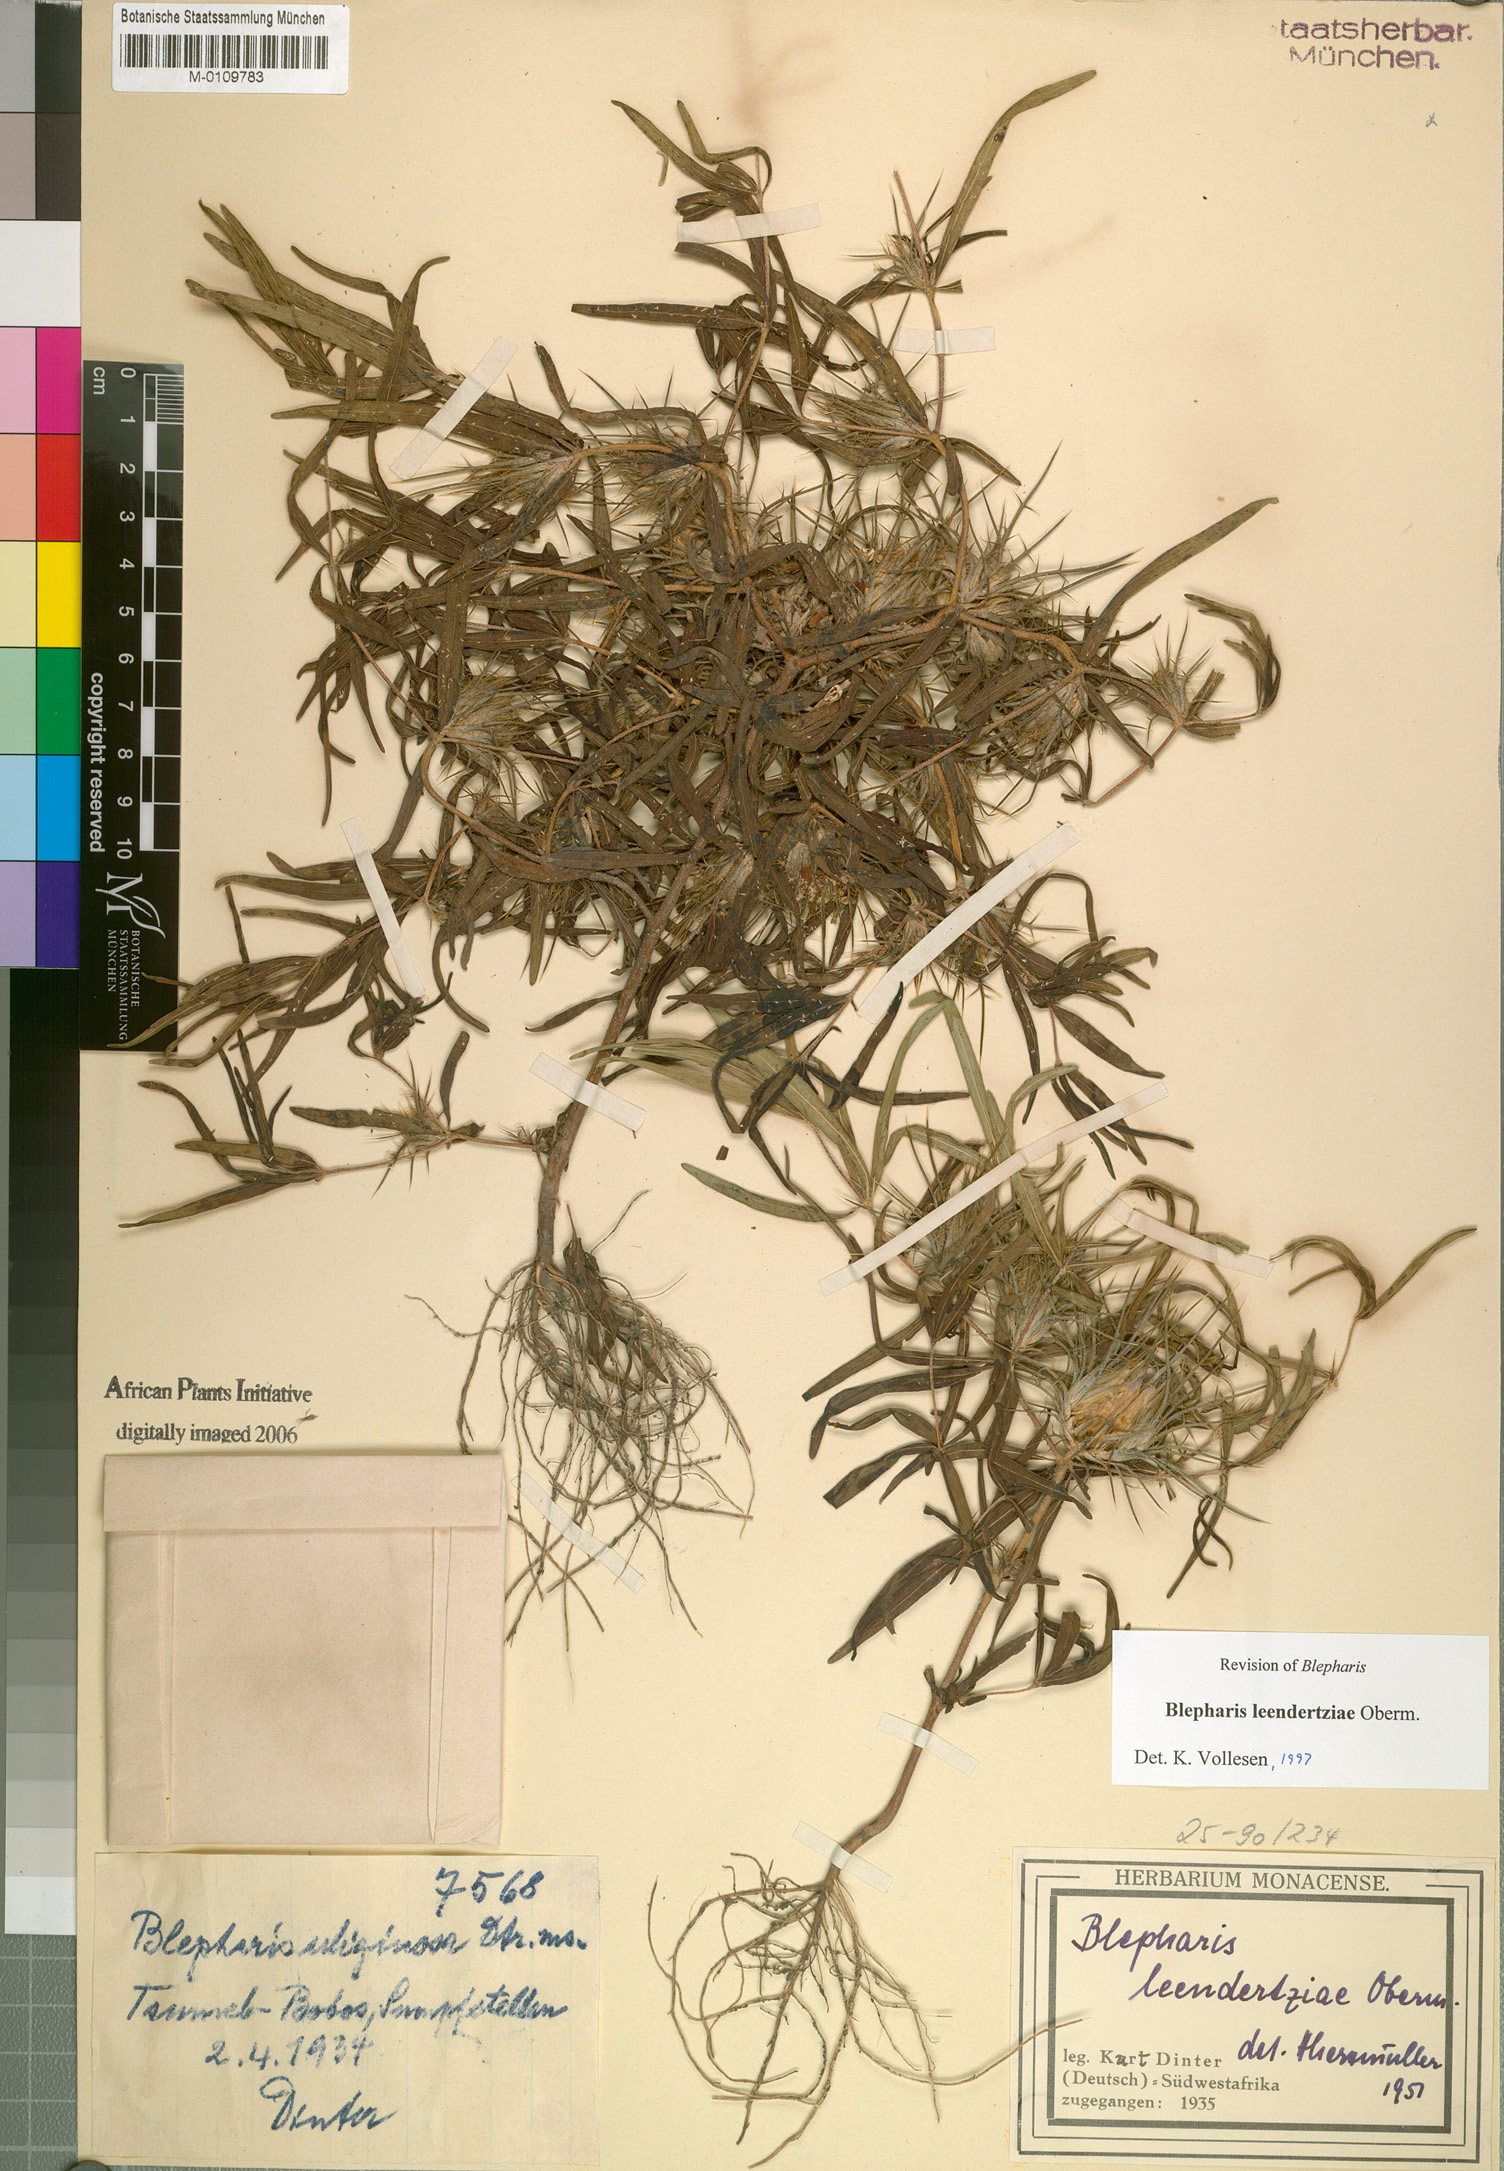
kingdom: Plantae
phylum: Tracheophyta
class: Magnoliopsida
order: Lamiales
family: Acanthaceae
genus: Blepharis
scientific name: Blepharis leendertziae
